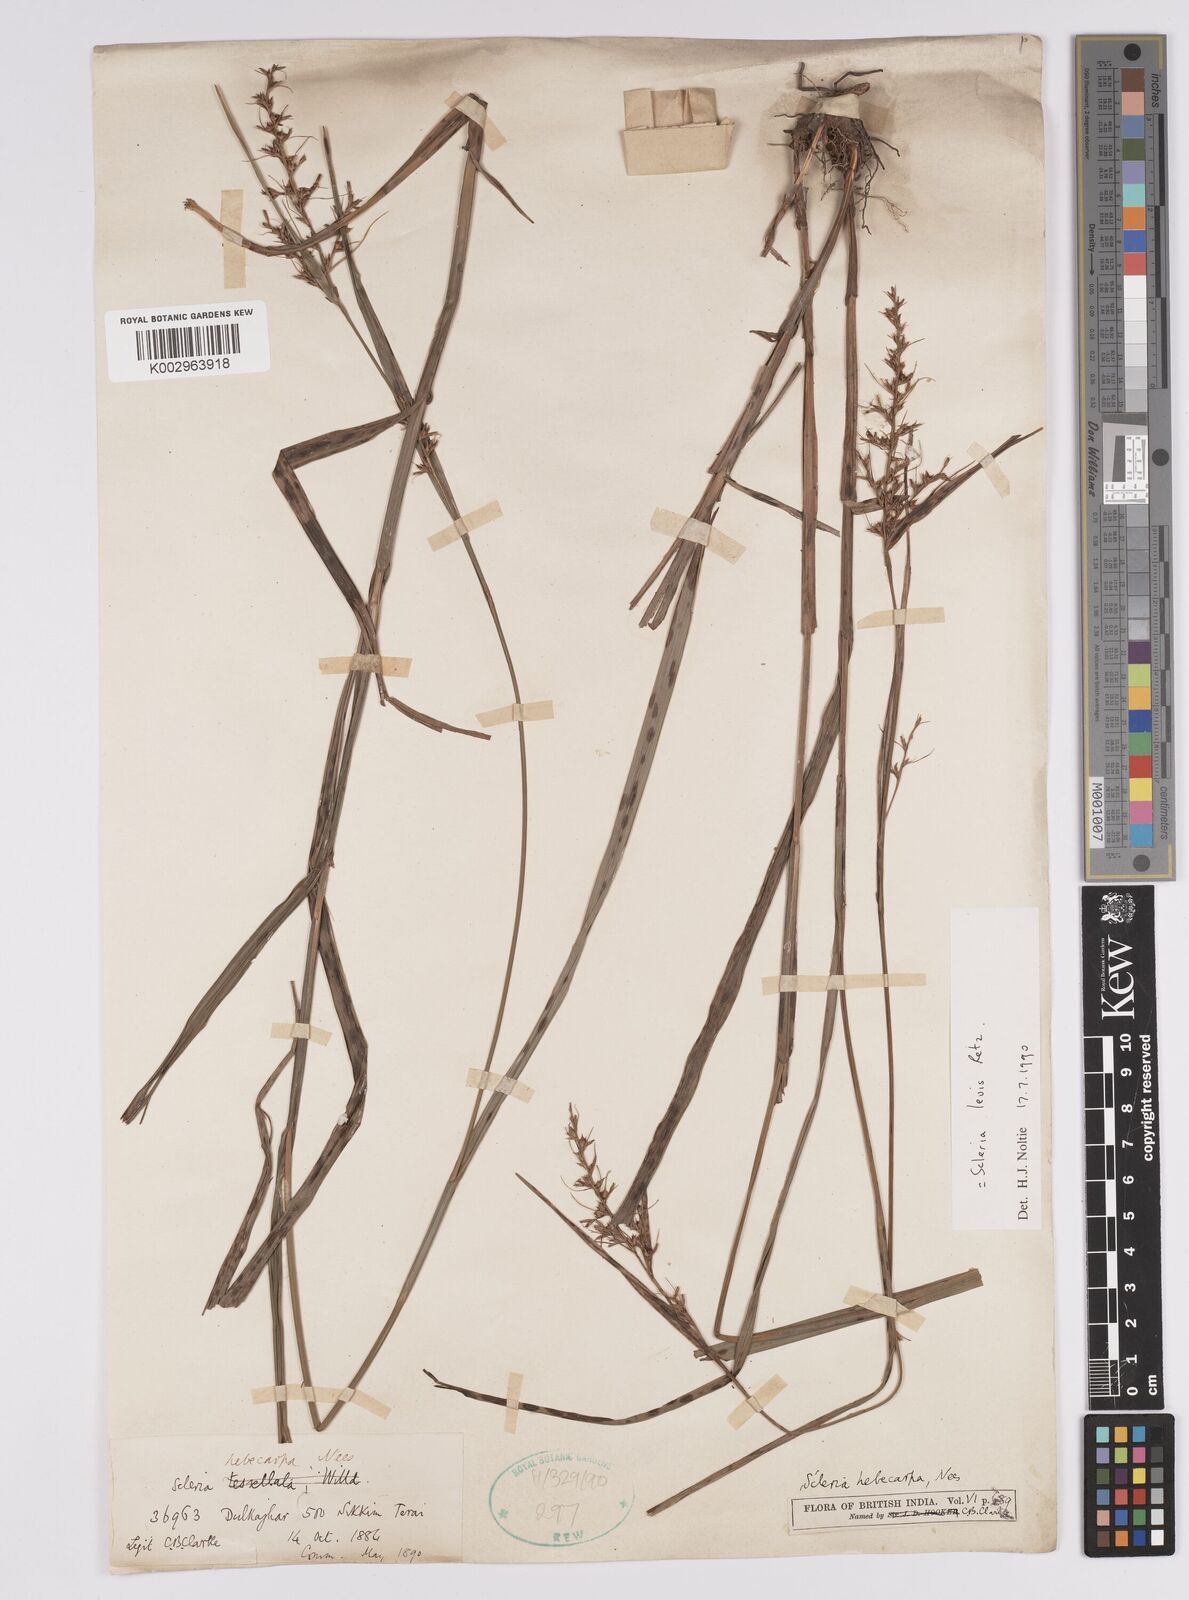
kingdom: Plantae
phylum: Tracheophyta
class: Liliopsida
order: Poales
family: Cyperaceae
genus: Scleria
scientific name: Scleria levis
